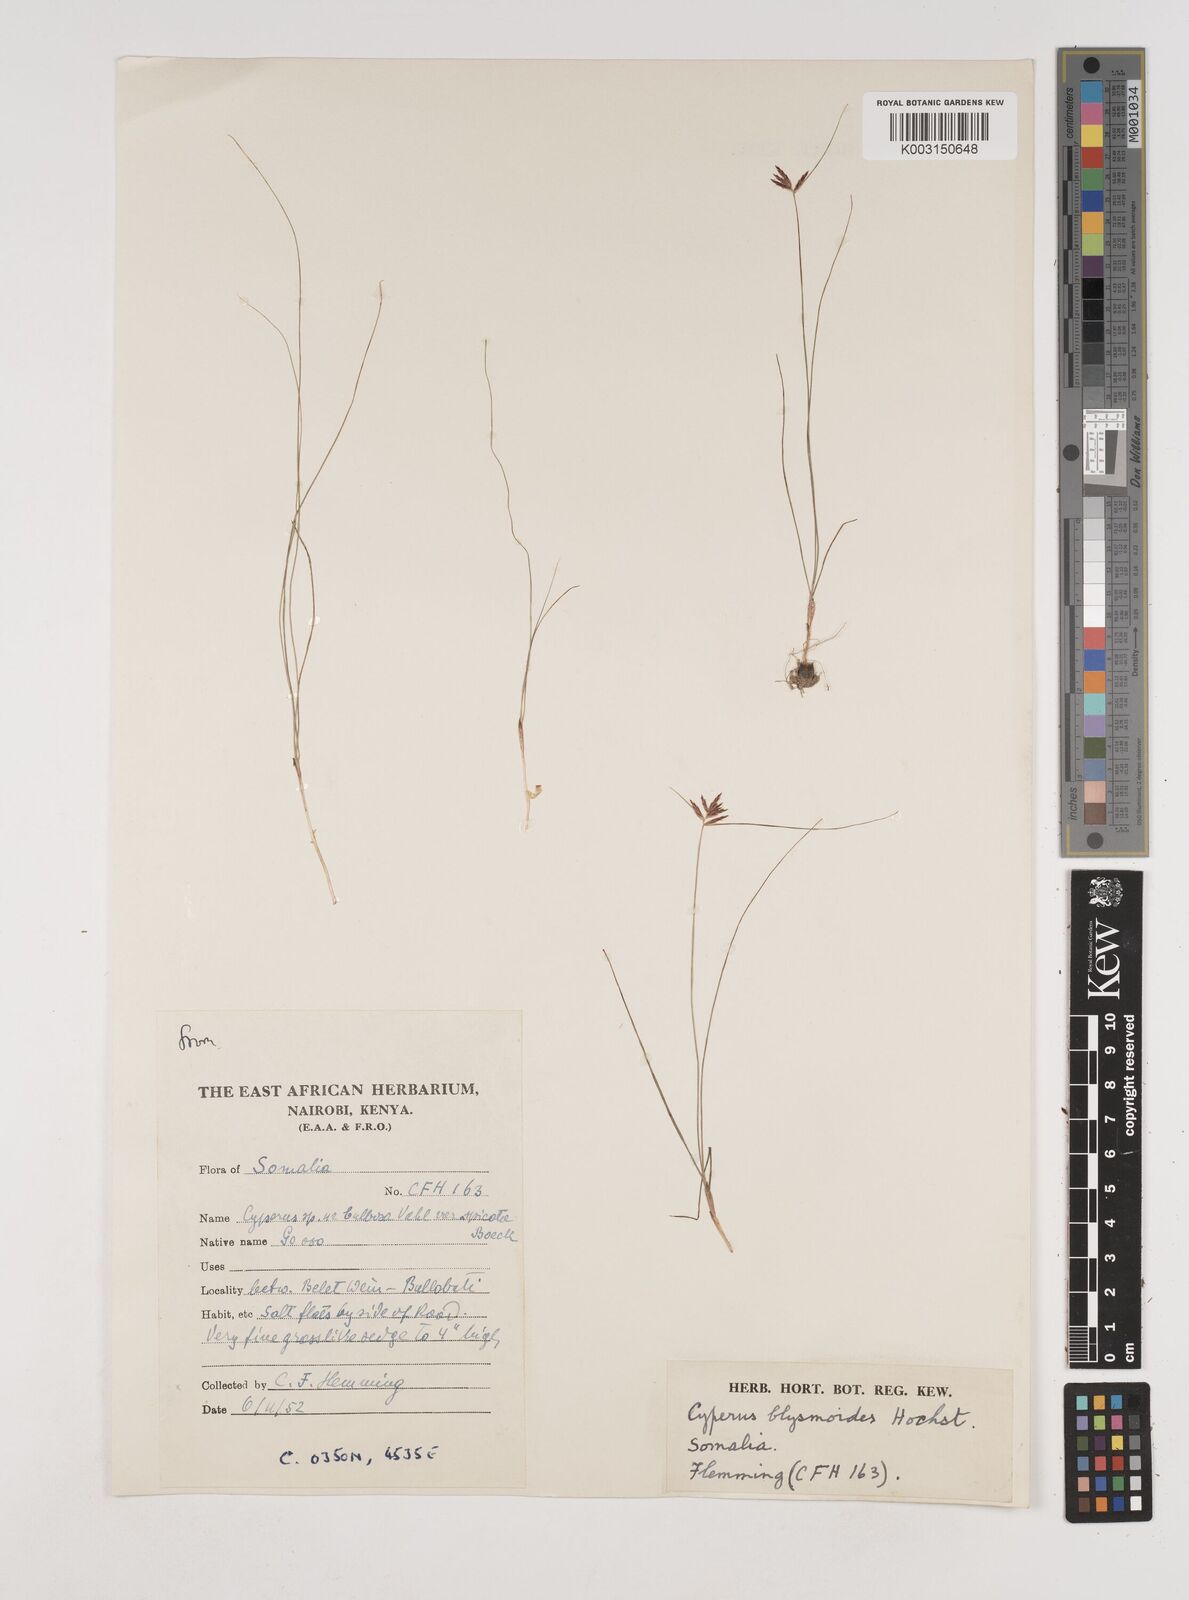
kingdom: Plantae
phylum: Tracheophyta
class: Liliopsida
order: Poales
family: Cyperaceae
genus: Cyperus
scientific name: Cyperus bulbosus
